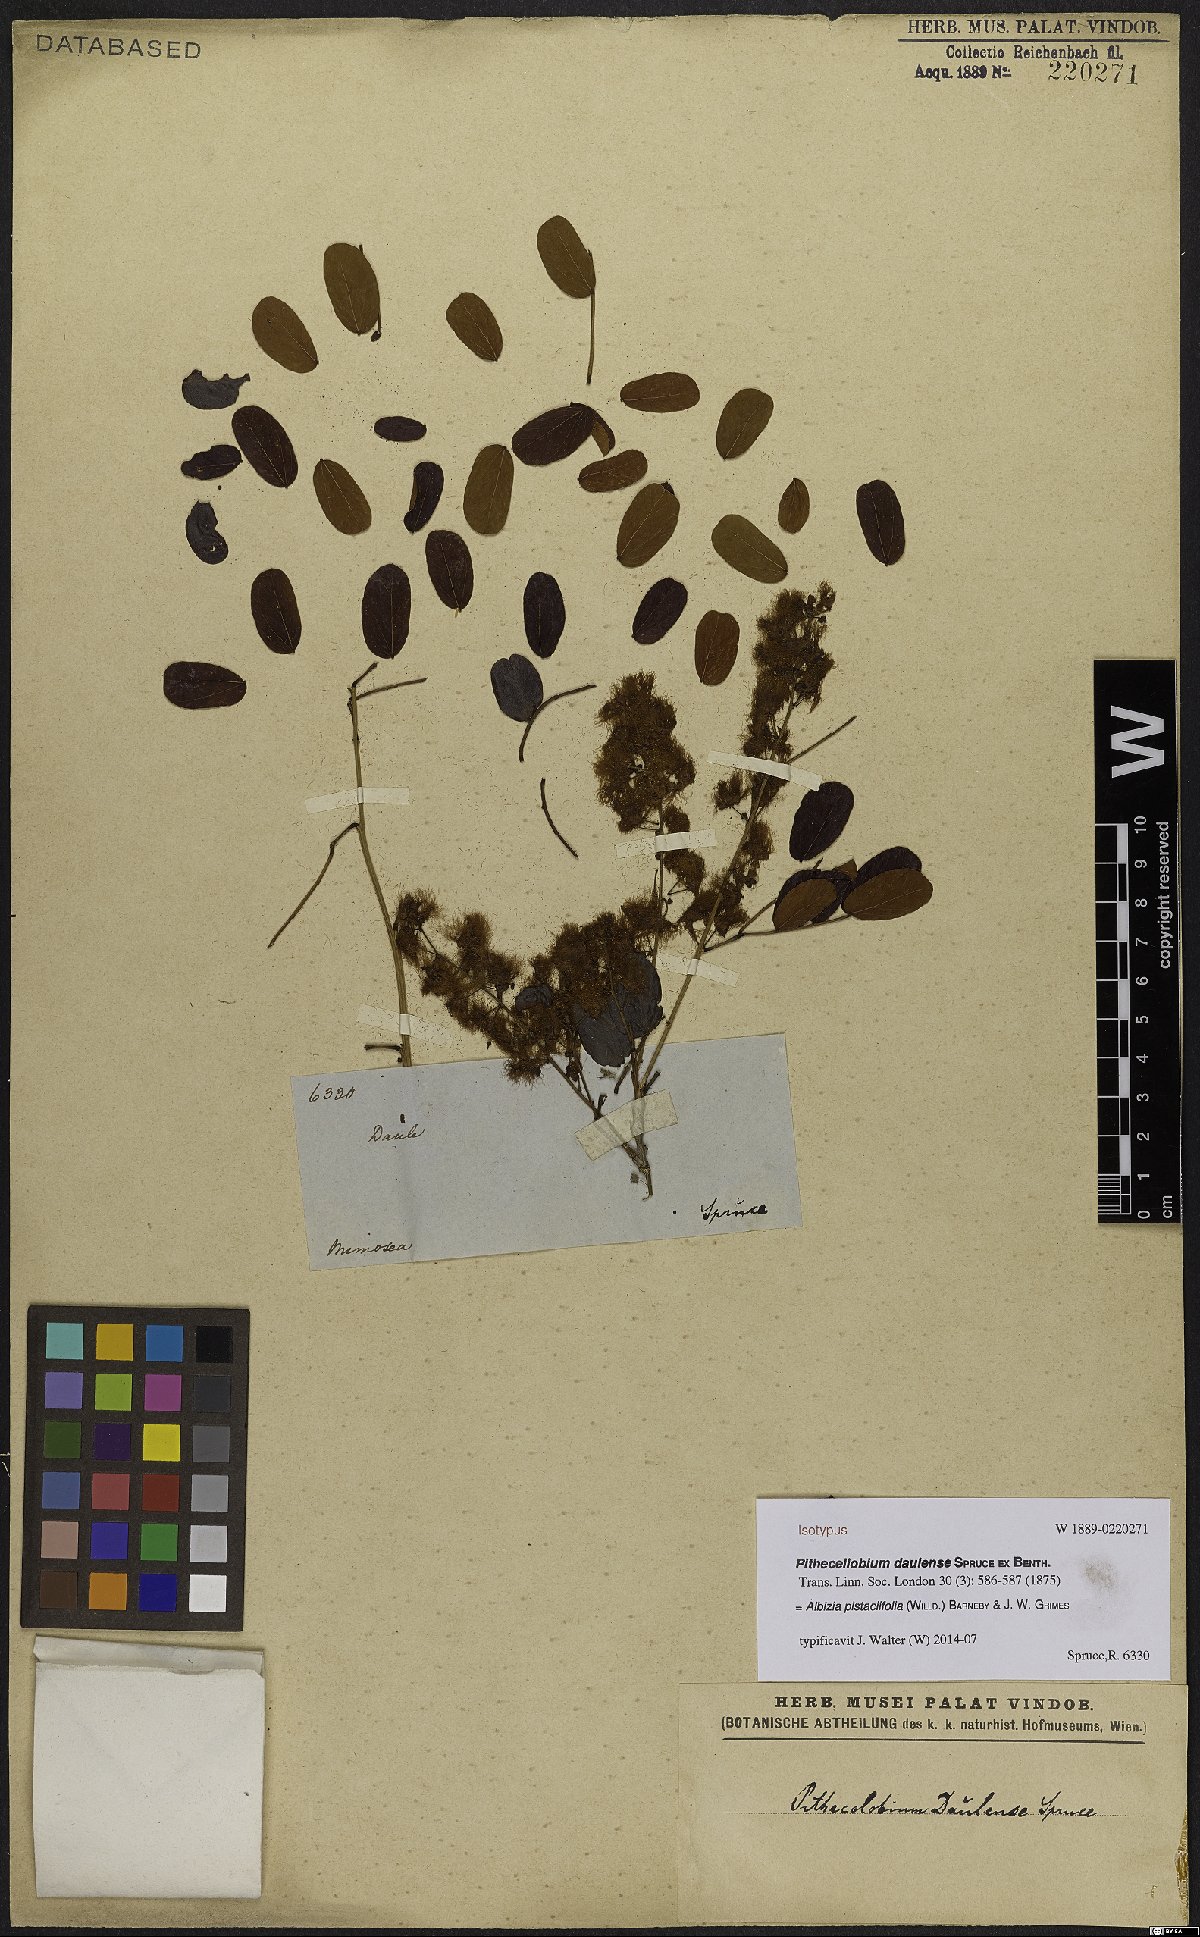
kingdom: Plantae
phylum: Tracheophyta
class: Magnoliopsida
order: Fabales
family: Fabaceae
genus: Albizia
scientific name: Albizia pistaciifolia
